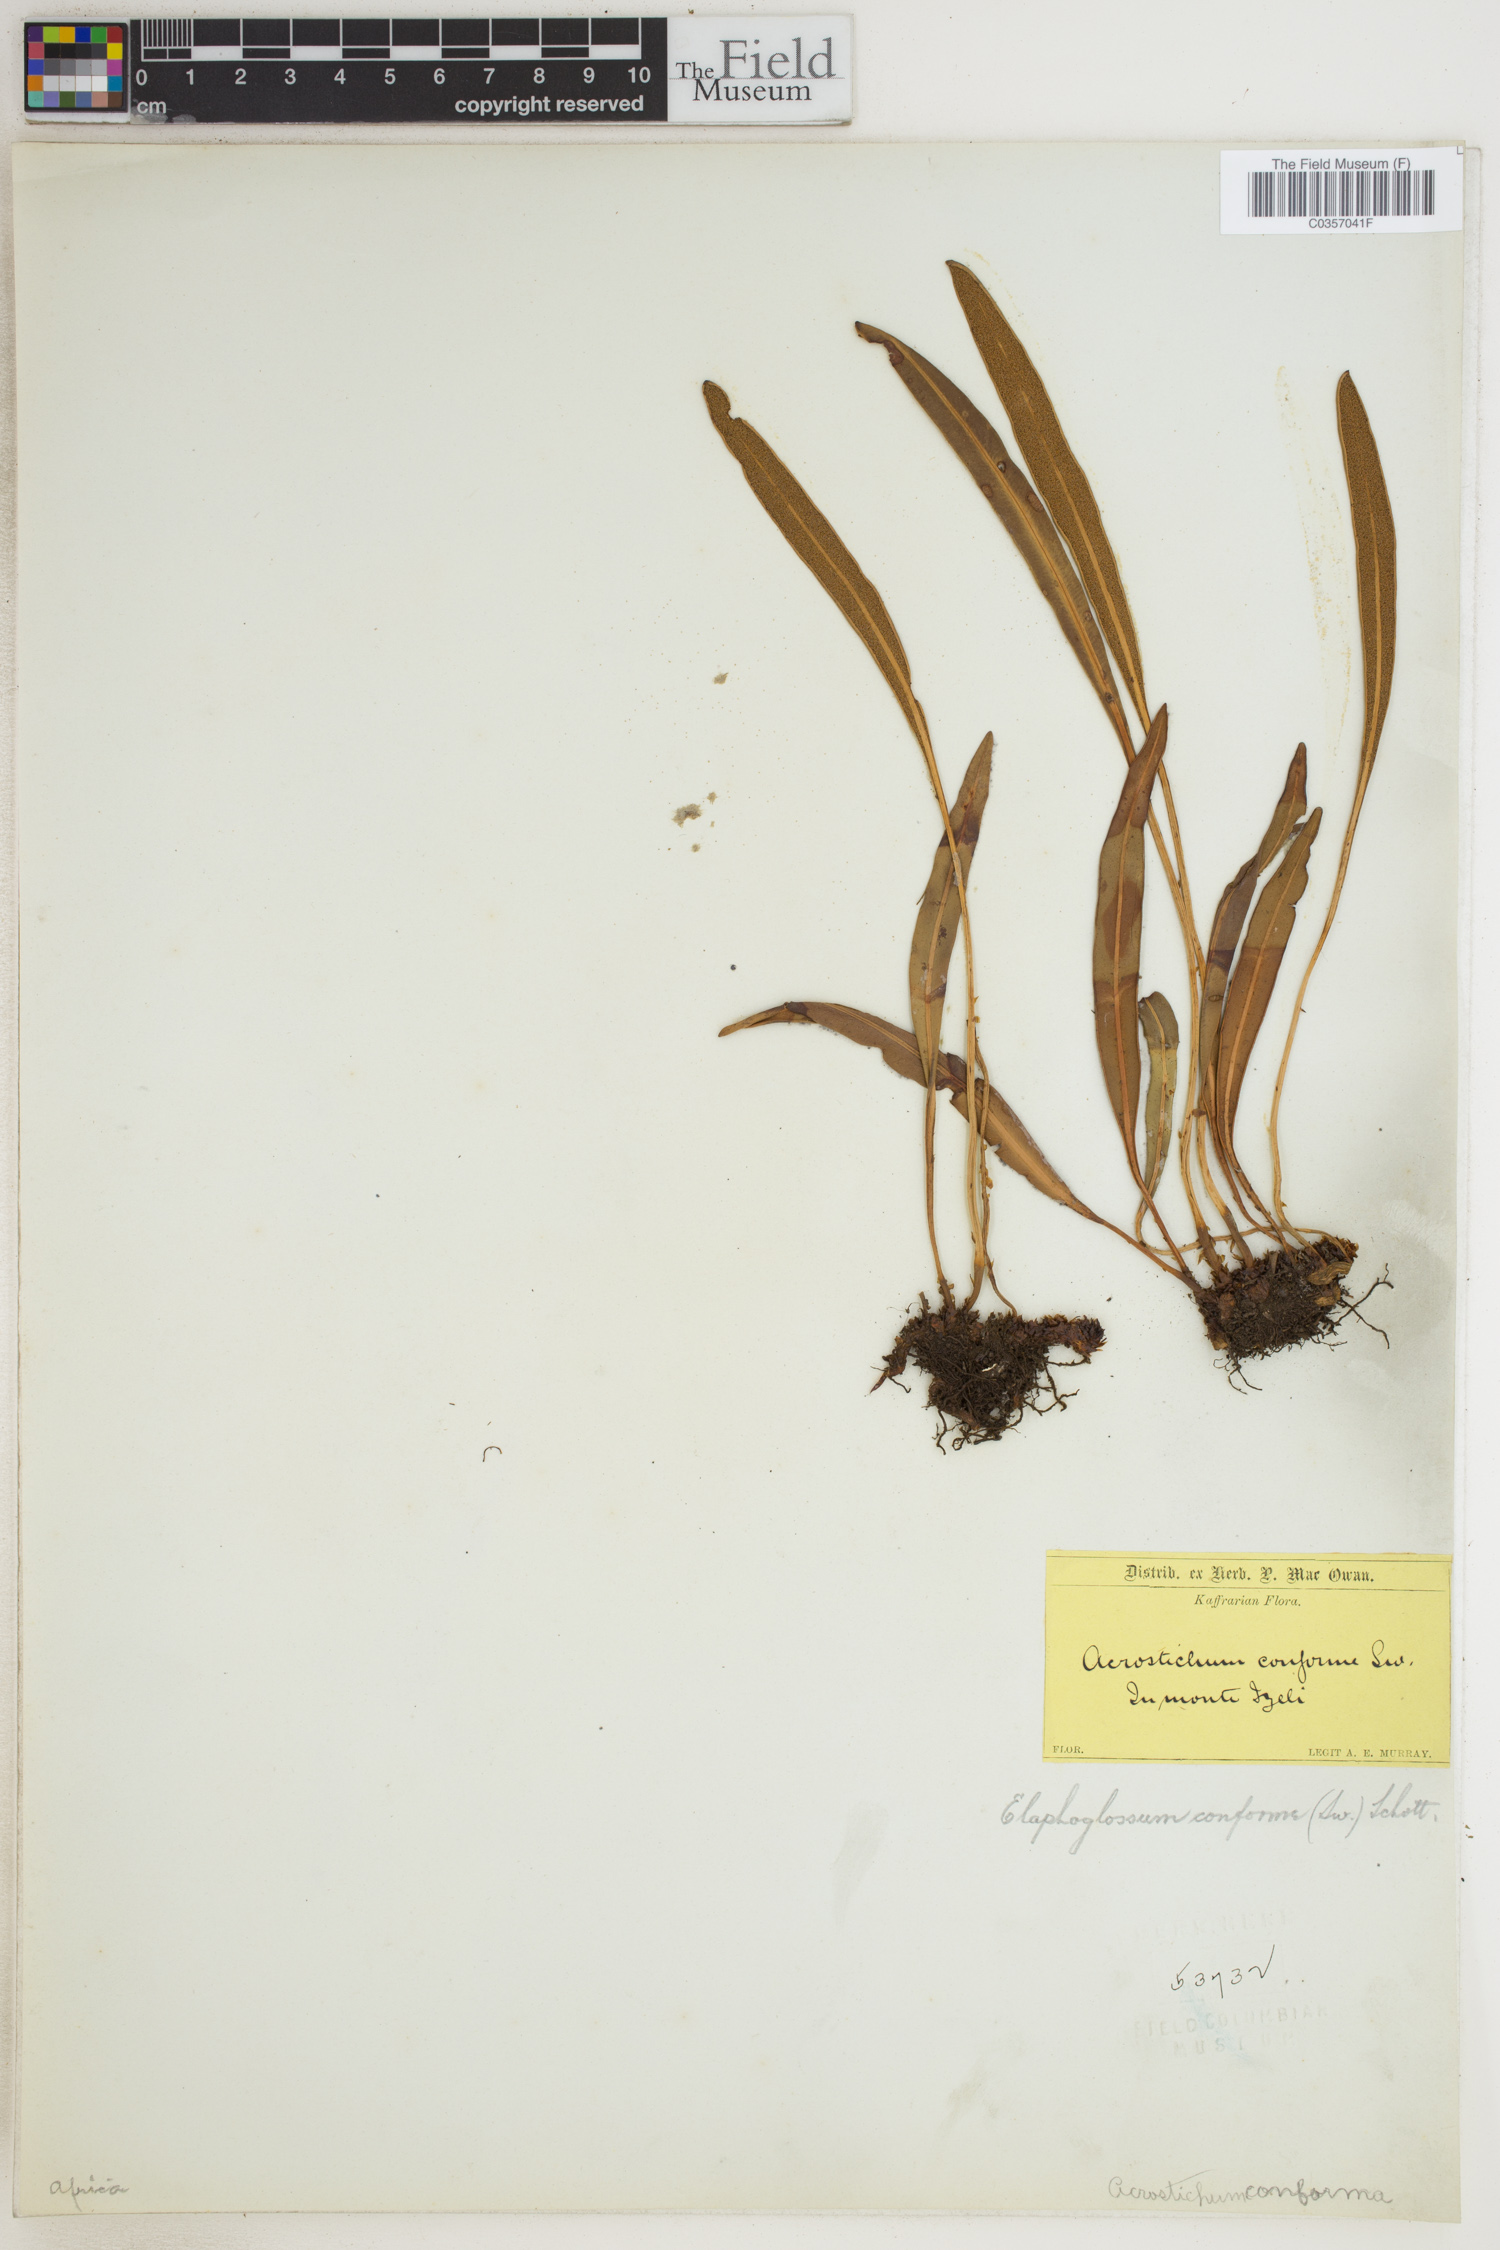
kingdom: Plantae
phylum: Tracheophyta
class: Polypodiopsida
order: Polypodiales
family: Dryopteridaceae
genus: Elaphoglossum
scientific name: Elaphoglossum conforme
